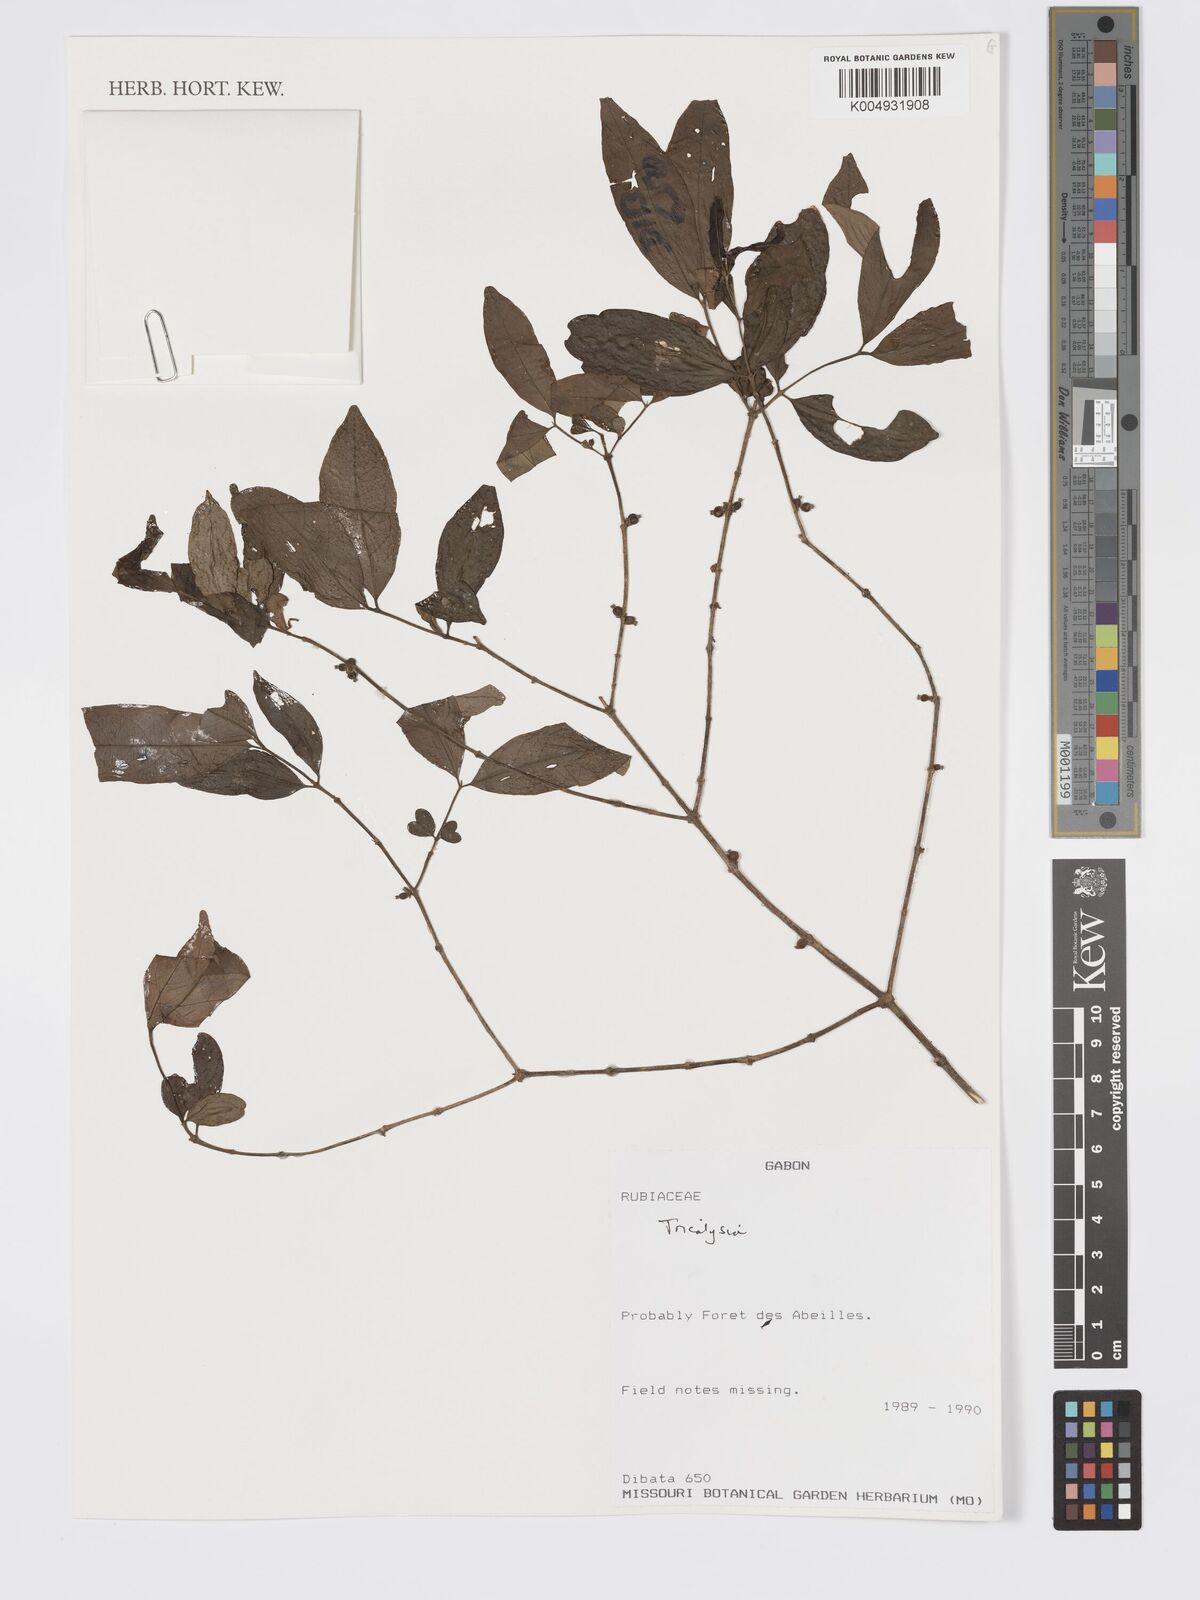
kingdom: Plantae
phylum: Tracheophyta
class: Magnoliopsida
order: Gentianales
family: Rubiaceae
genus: Tricalysia
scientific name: Tricalysia
